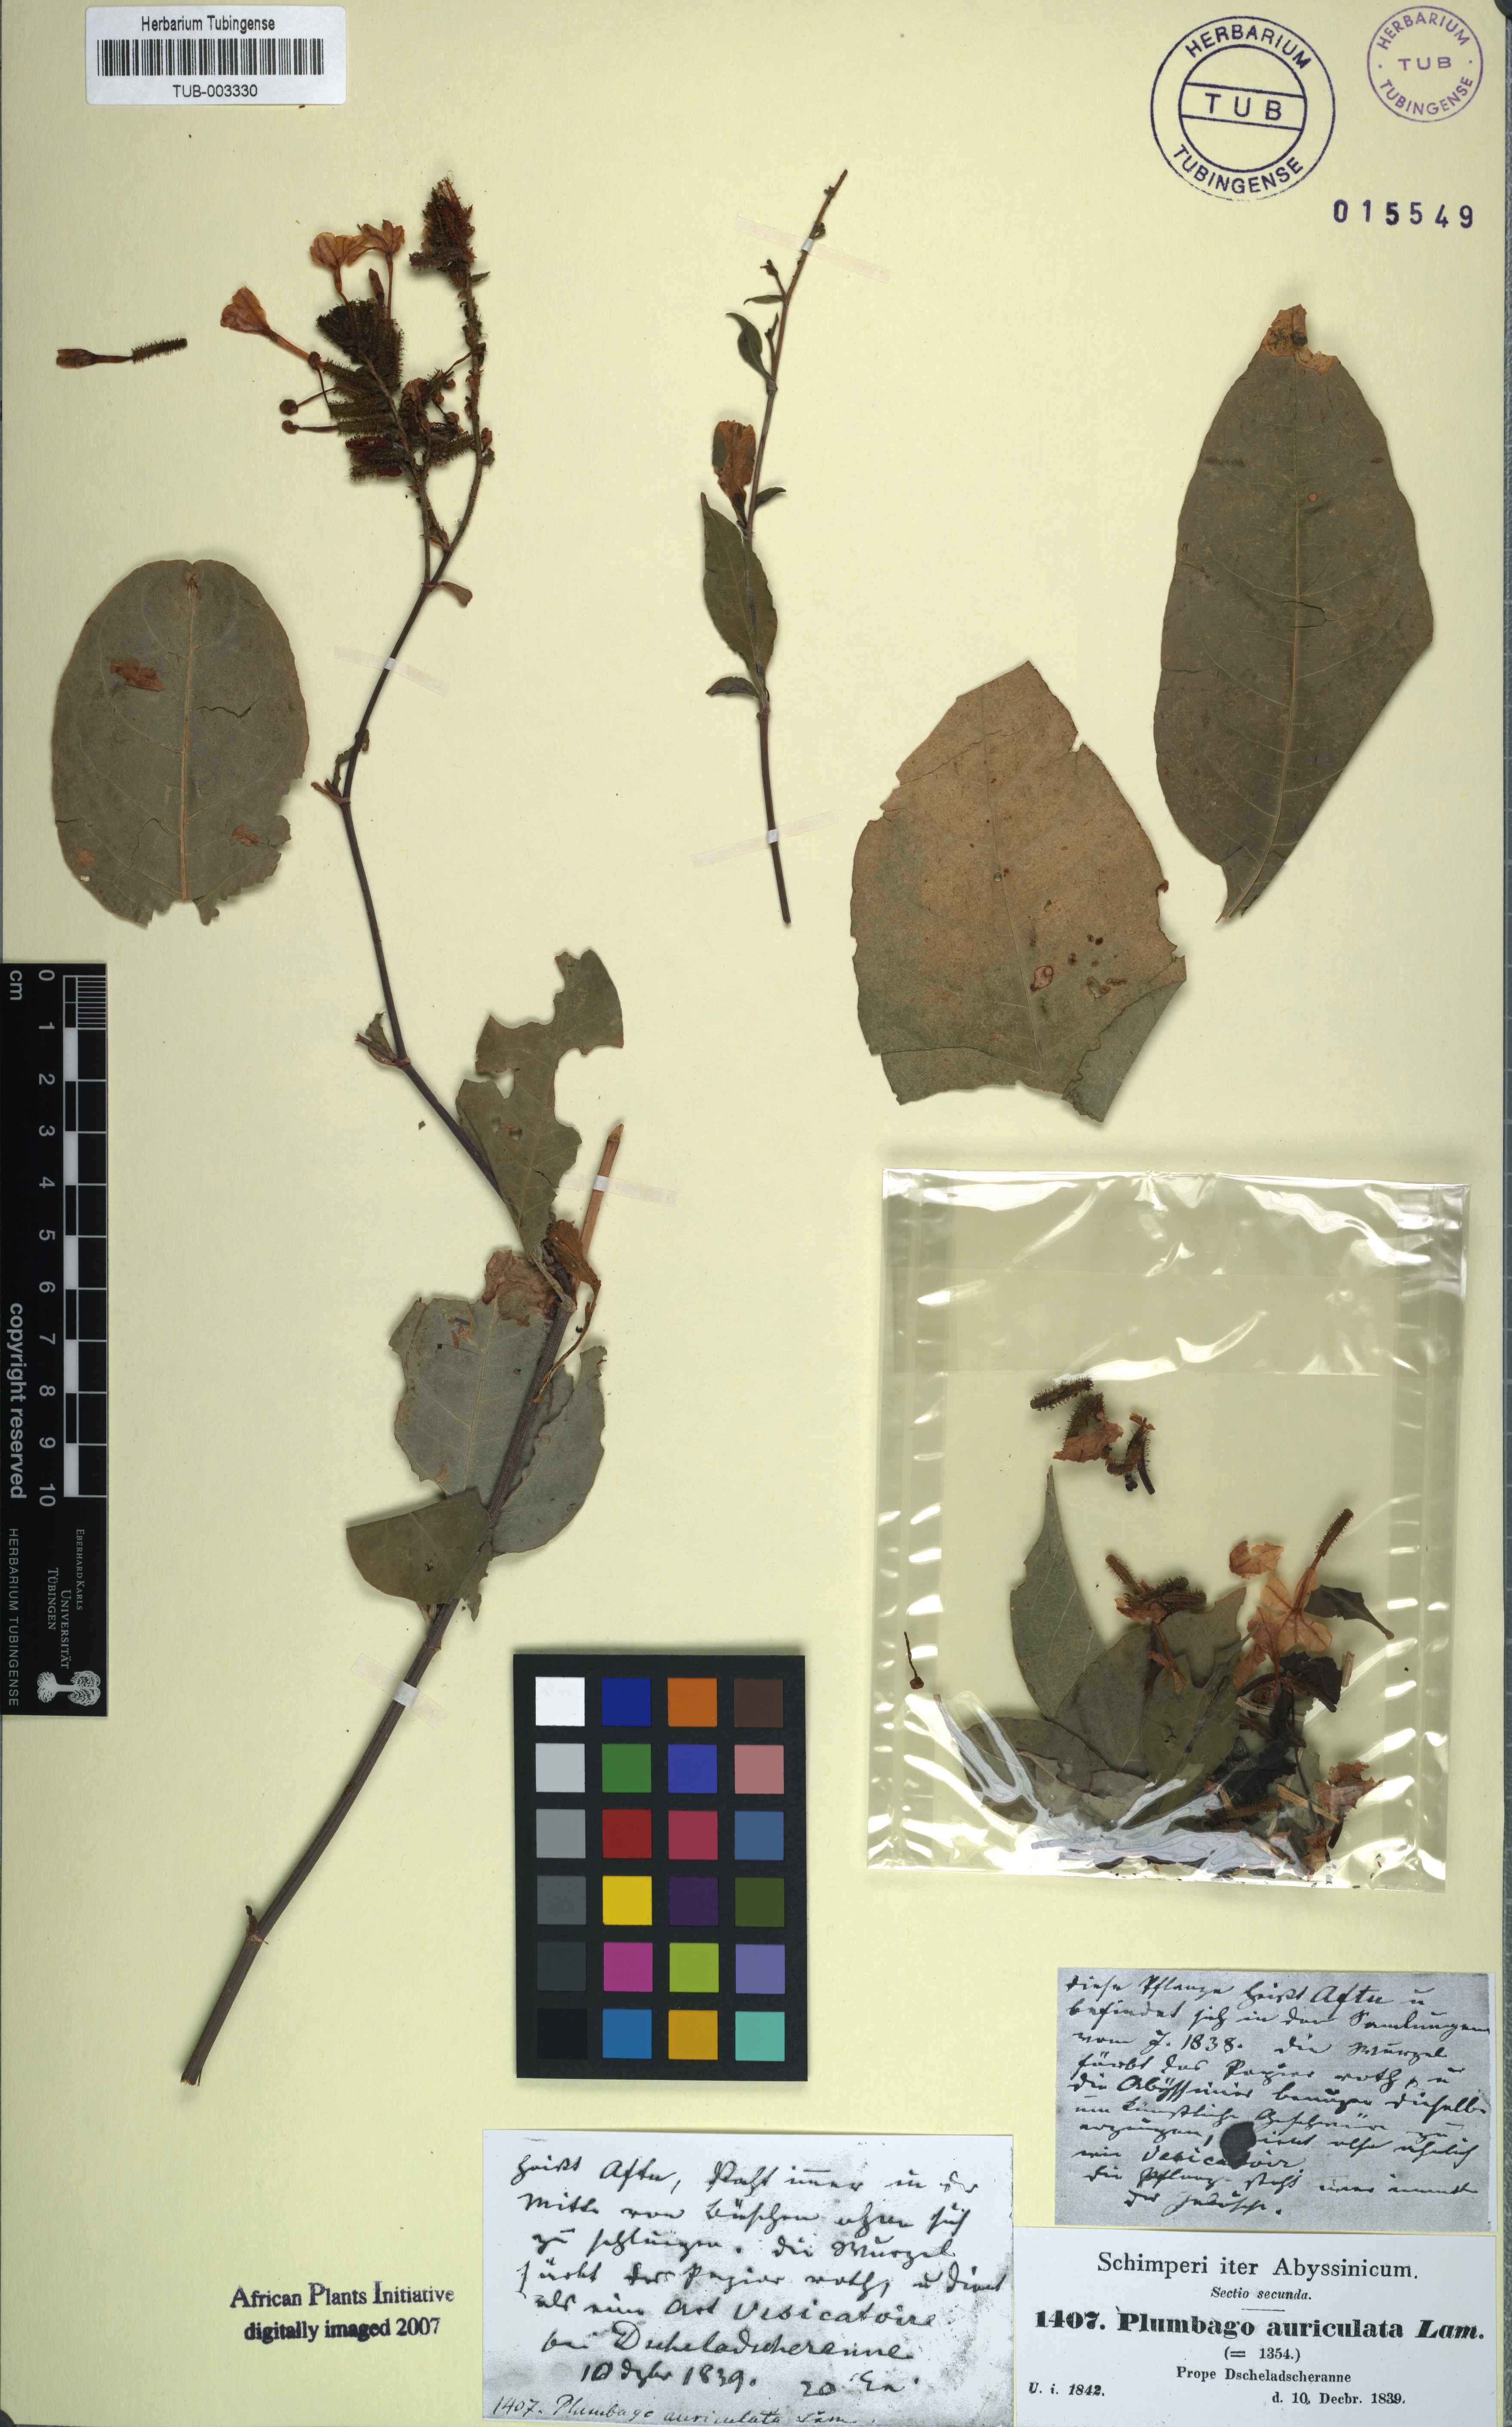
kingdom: Plantae
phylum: Tracheophyta
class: Magnoliopsida
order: Caryophyllales
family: Plumbaginaceae
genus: Plumbago
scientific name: Plumbago auriculata
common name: Cape leadwort
